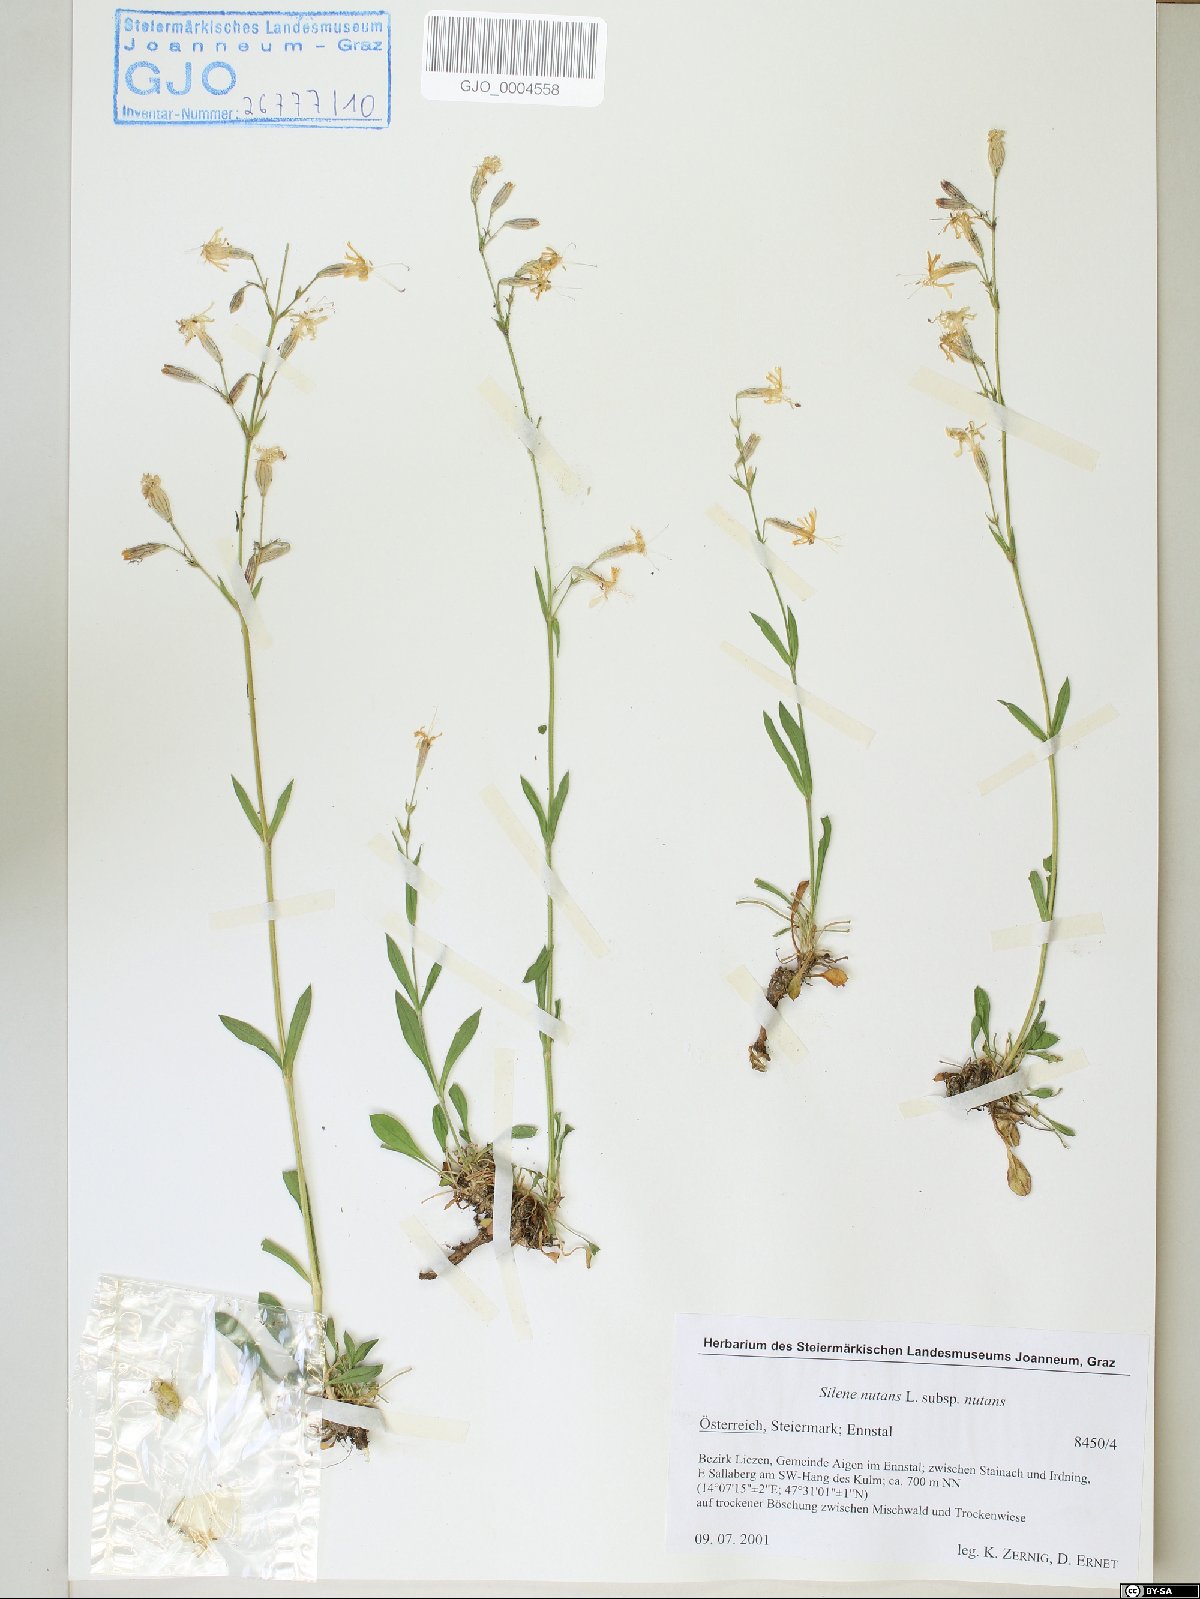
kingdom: Plantae
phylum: Tracheophyta
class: Magnoliopsida
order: Caryophyllales
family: Caryophyllaceae
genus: Silene
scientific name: Silene nutans
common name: Nottingham catchfly
